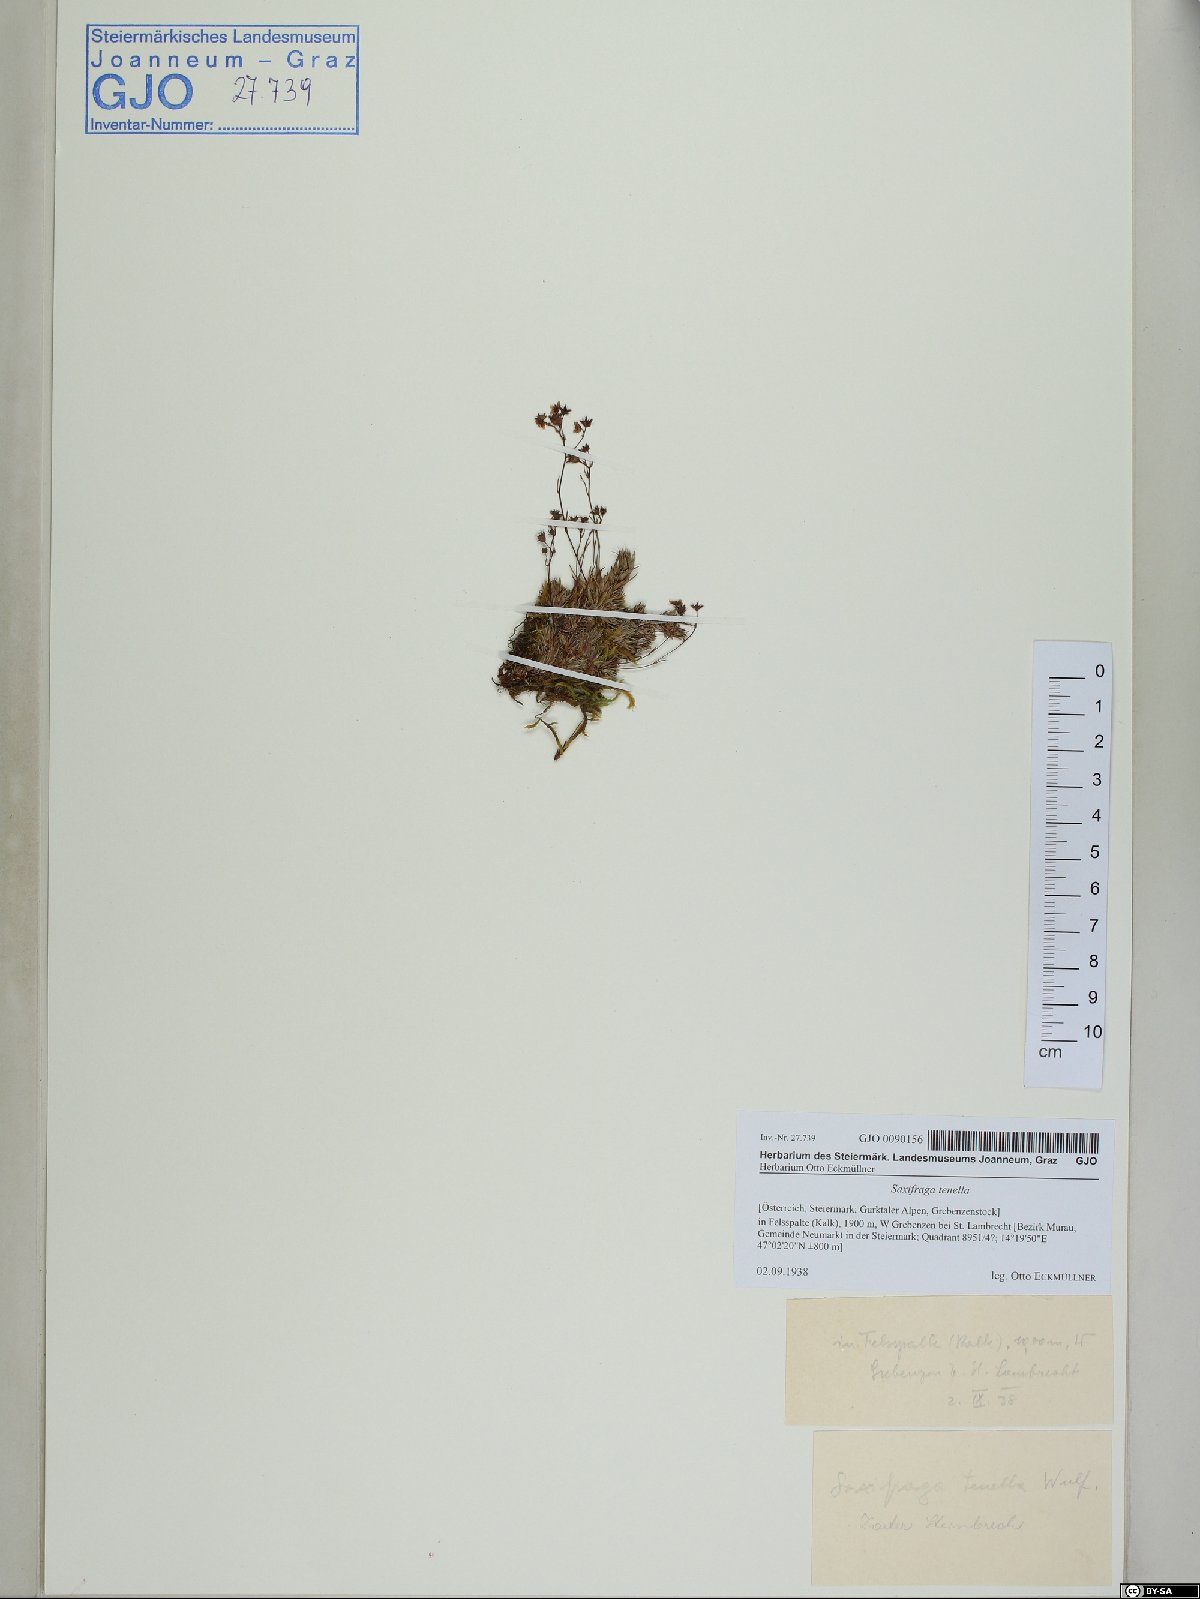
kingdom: Plantae
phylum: Tracheophyta
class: Magnoliopsida
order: Saxifragales
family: Saxifragaceae
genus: Saxifraga
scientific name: Saxifraga tenella
